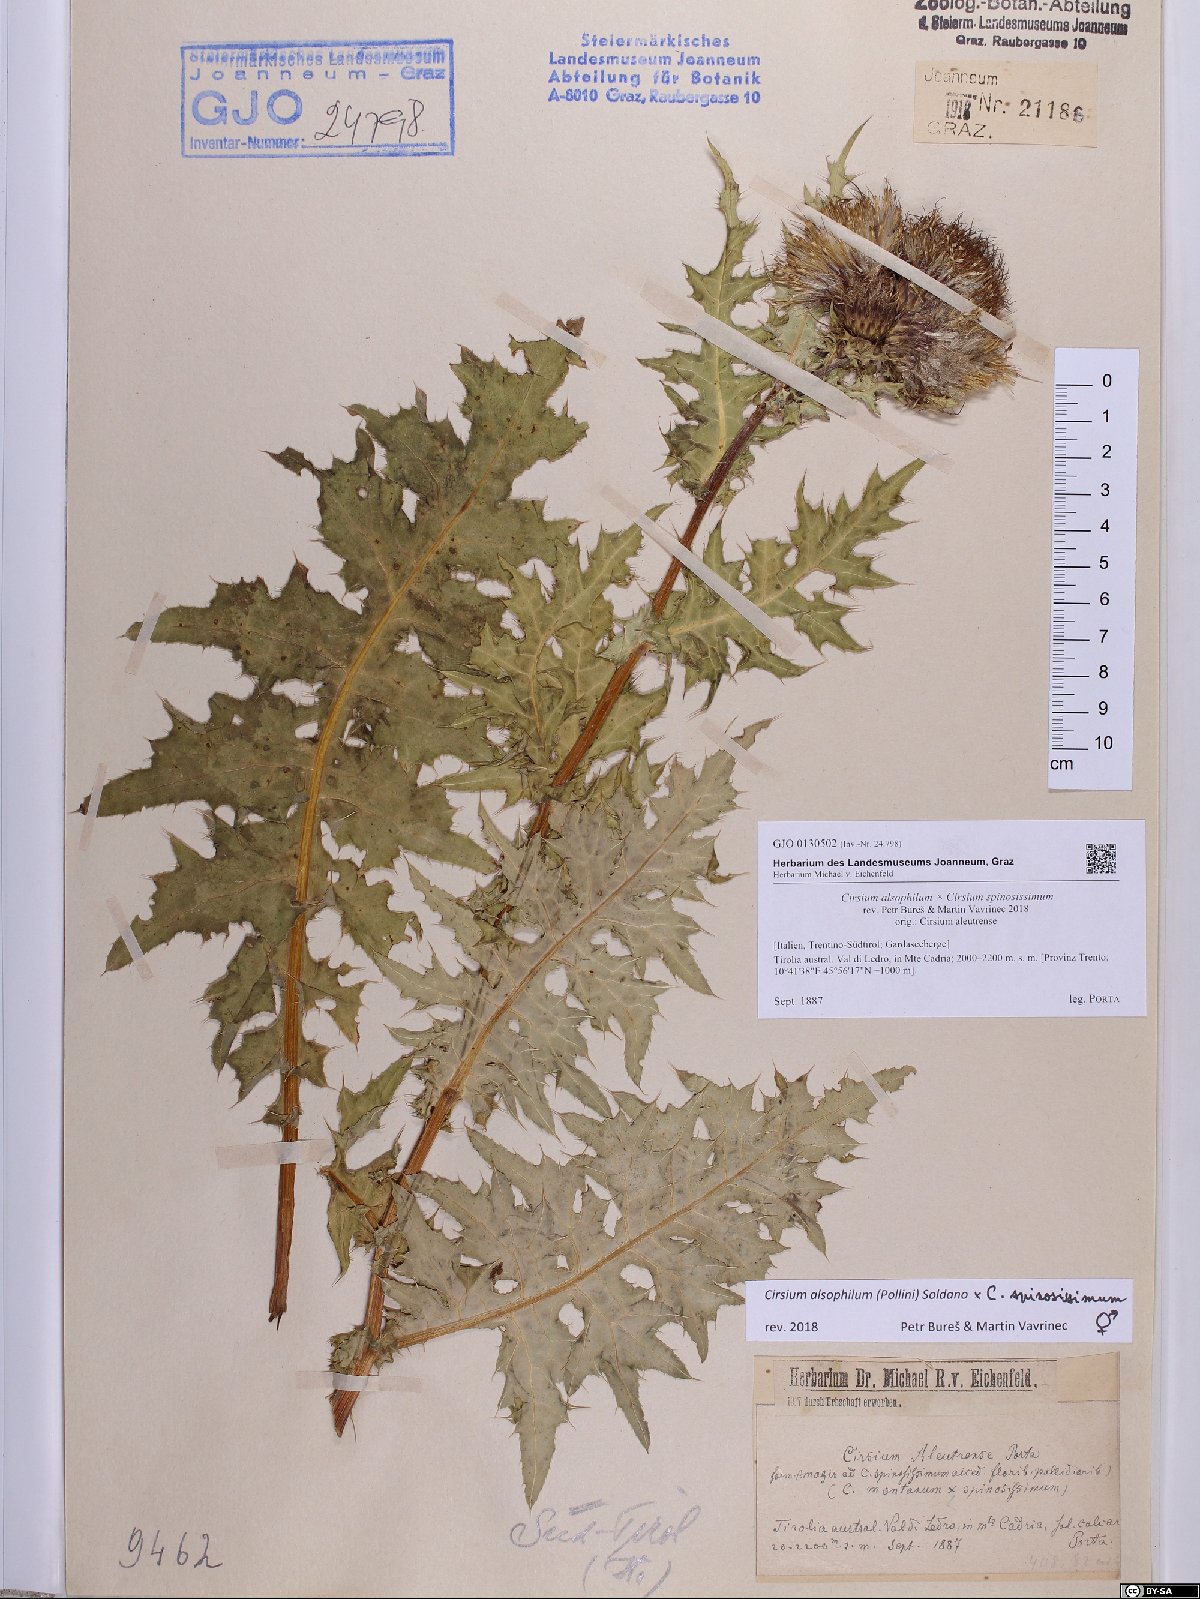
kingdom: Plantae
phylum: Tracheophyta
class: Magnoliopsida
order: Asterales
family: Asteraceae
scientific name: Asteraceae
